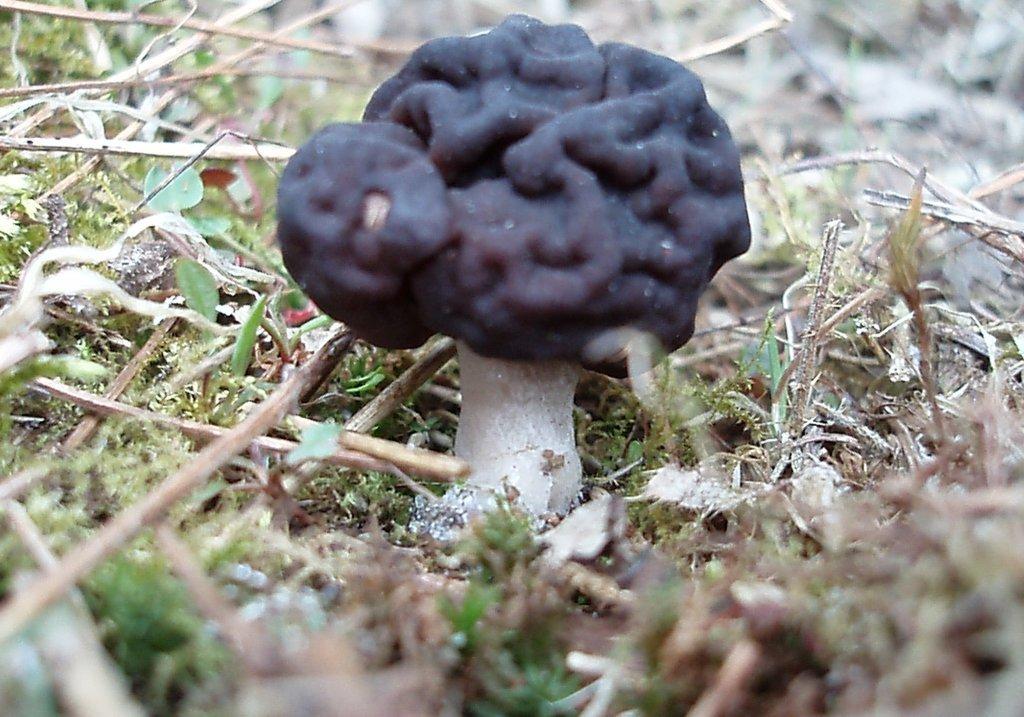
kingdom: Fungi
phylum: Ascomycota
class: Pezizomycetes
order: Pezizales
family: Discinaceae
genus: Gyromitra
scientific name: Gyromitra esculenta
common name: ægte stenmorkel
